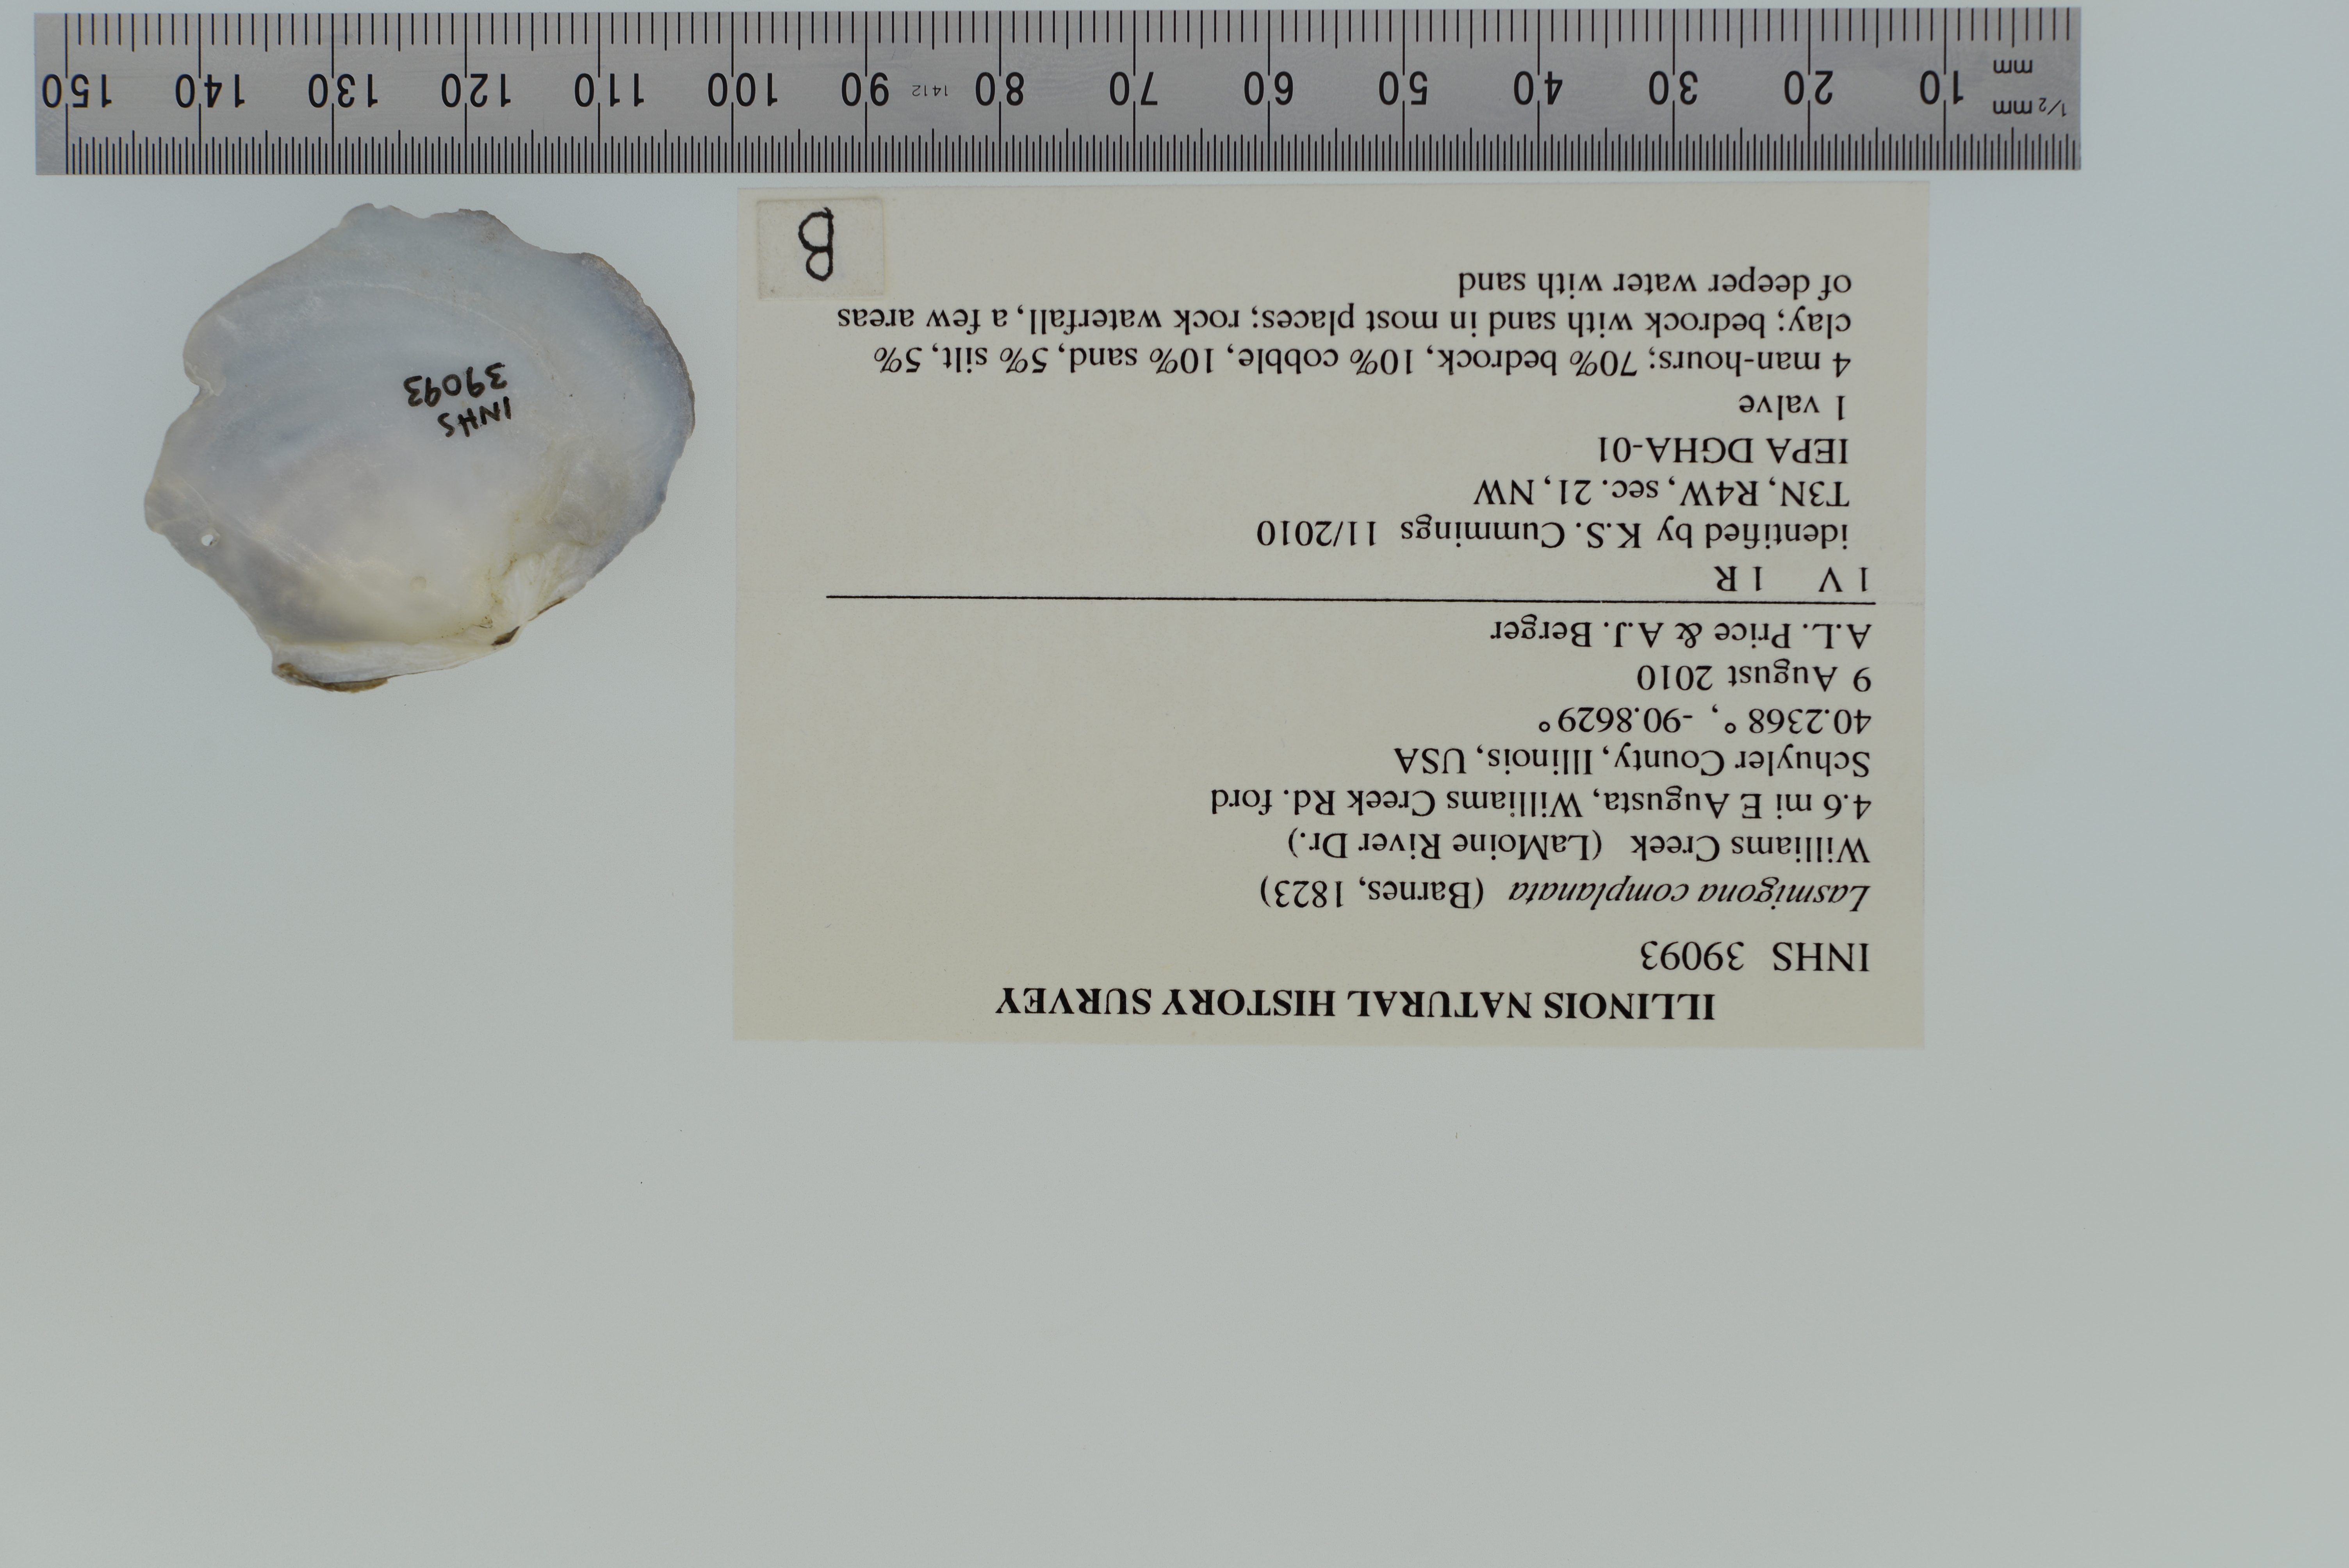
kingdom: Animalia
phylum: Mollusca
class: Bivalvia
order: Unionida
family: Unionidae
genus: Lasmigona
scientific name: Lasmigona complanata
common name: White heelsplitter
